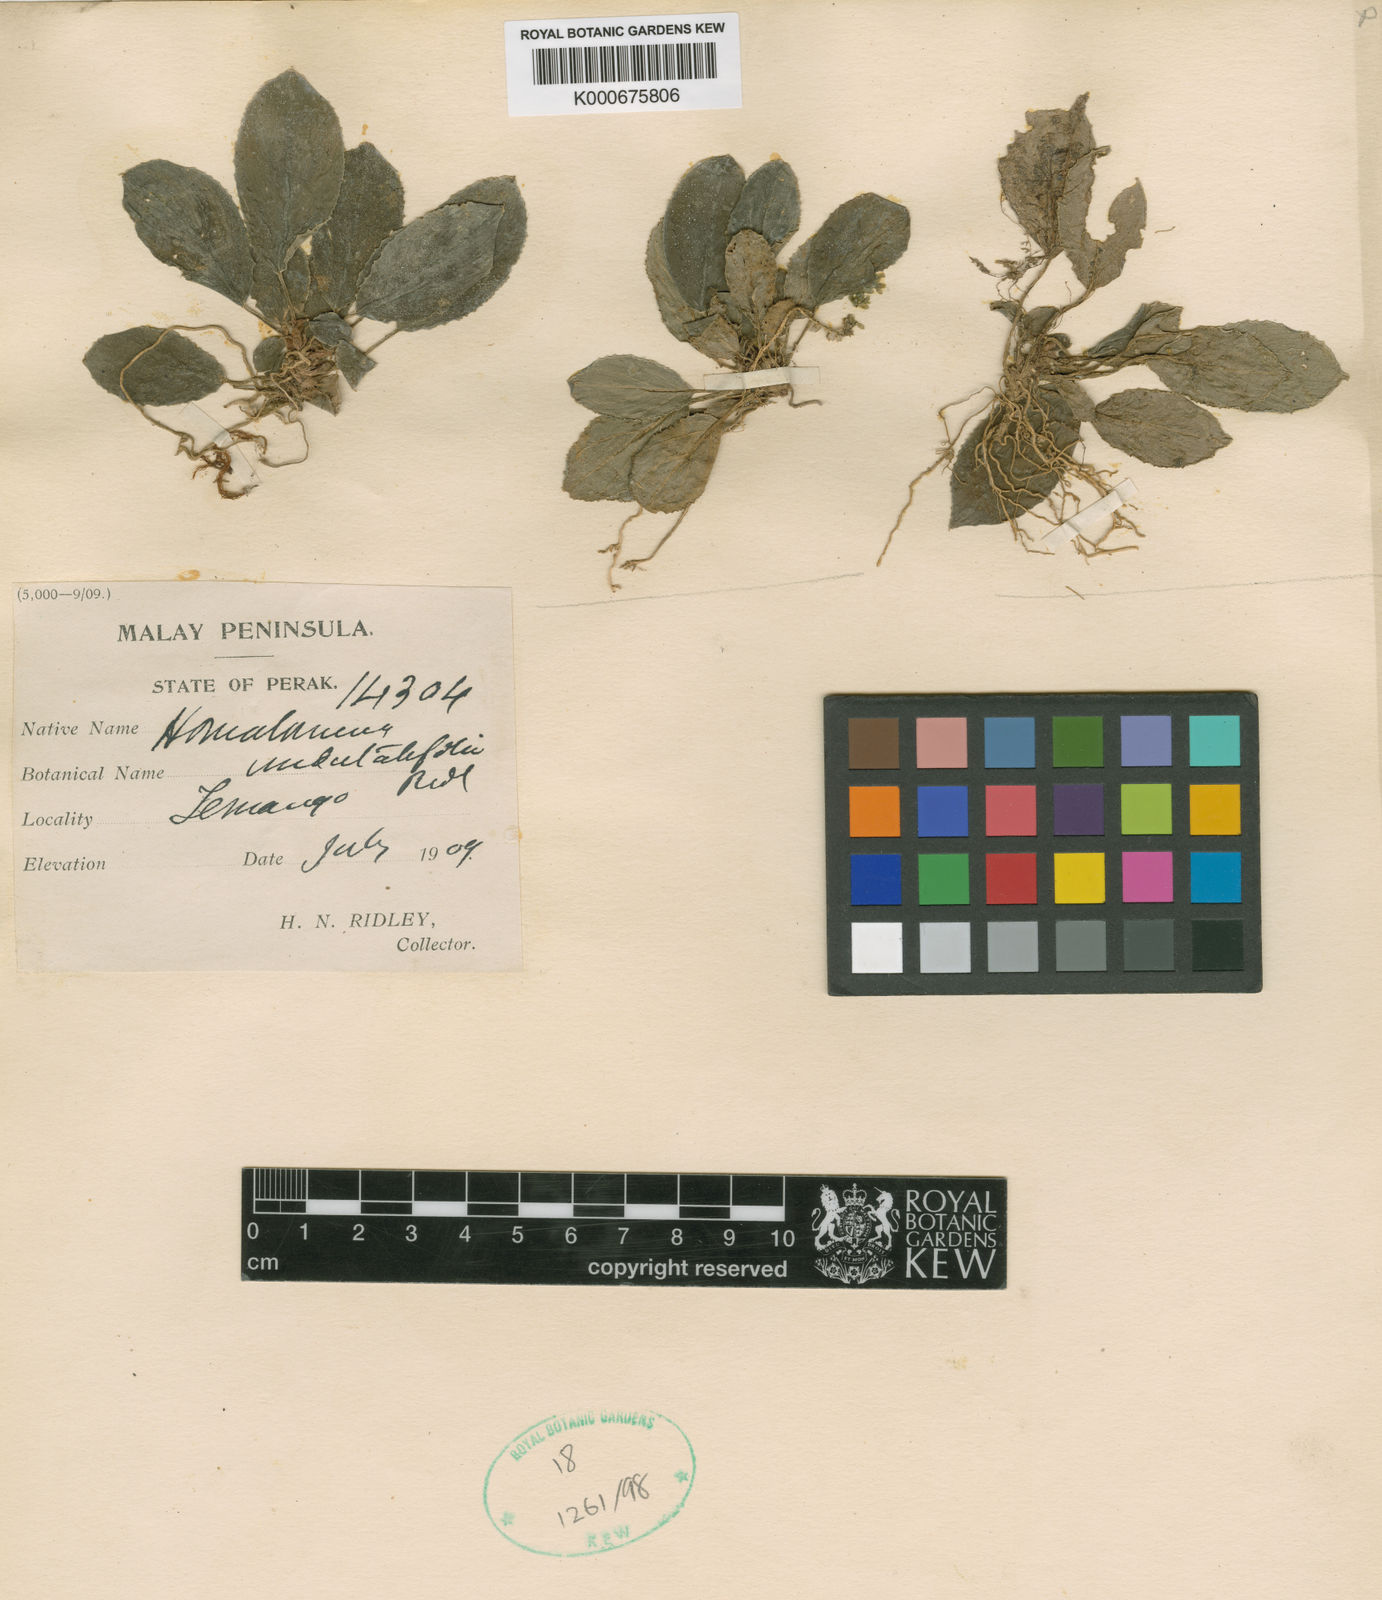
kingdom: Plantae
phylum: Tracheophyta
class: Liliopsida
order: Alismatales
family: Araceae
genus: Homalomena
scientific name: Homalomena humilis
